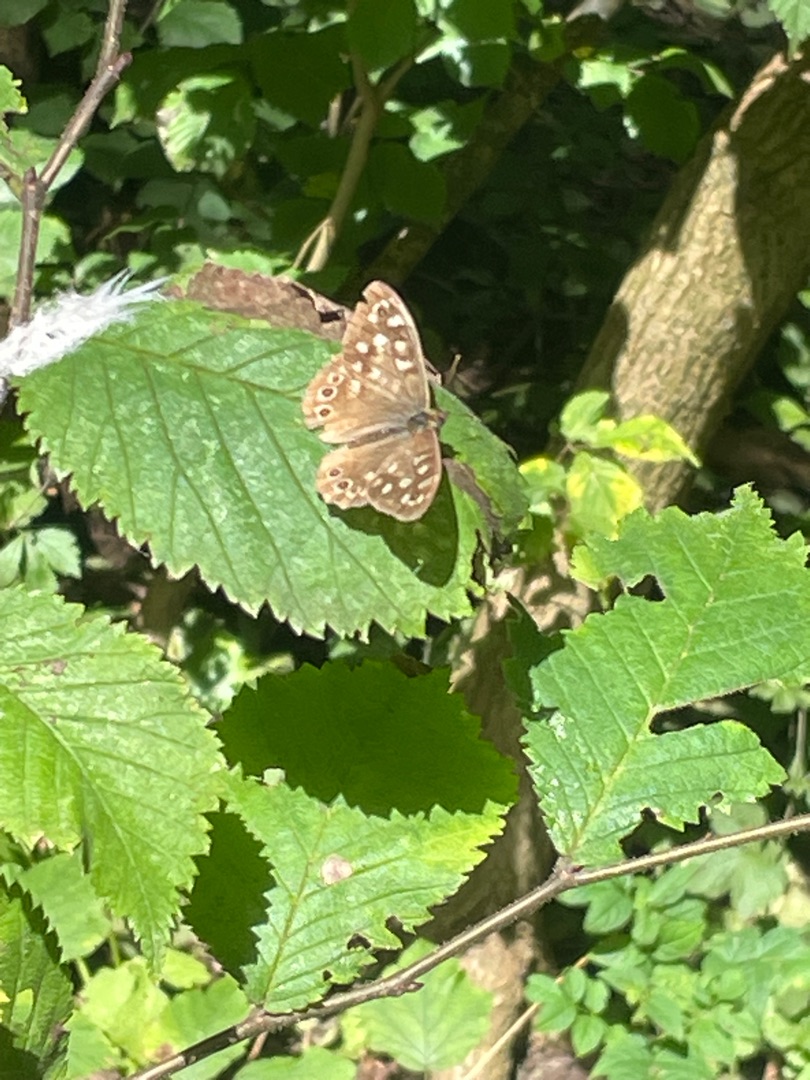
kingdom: Animalia
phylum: Arthropoda
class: Insecta
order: Lepidoptera
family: Nymphalidae
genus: Pararge
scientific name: Pararge aegeria
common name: Skovrandøje
